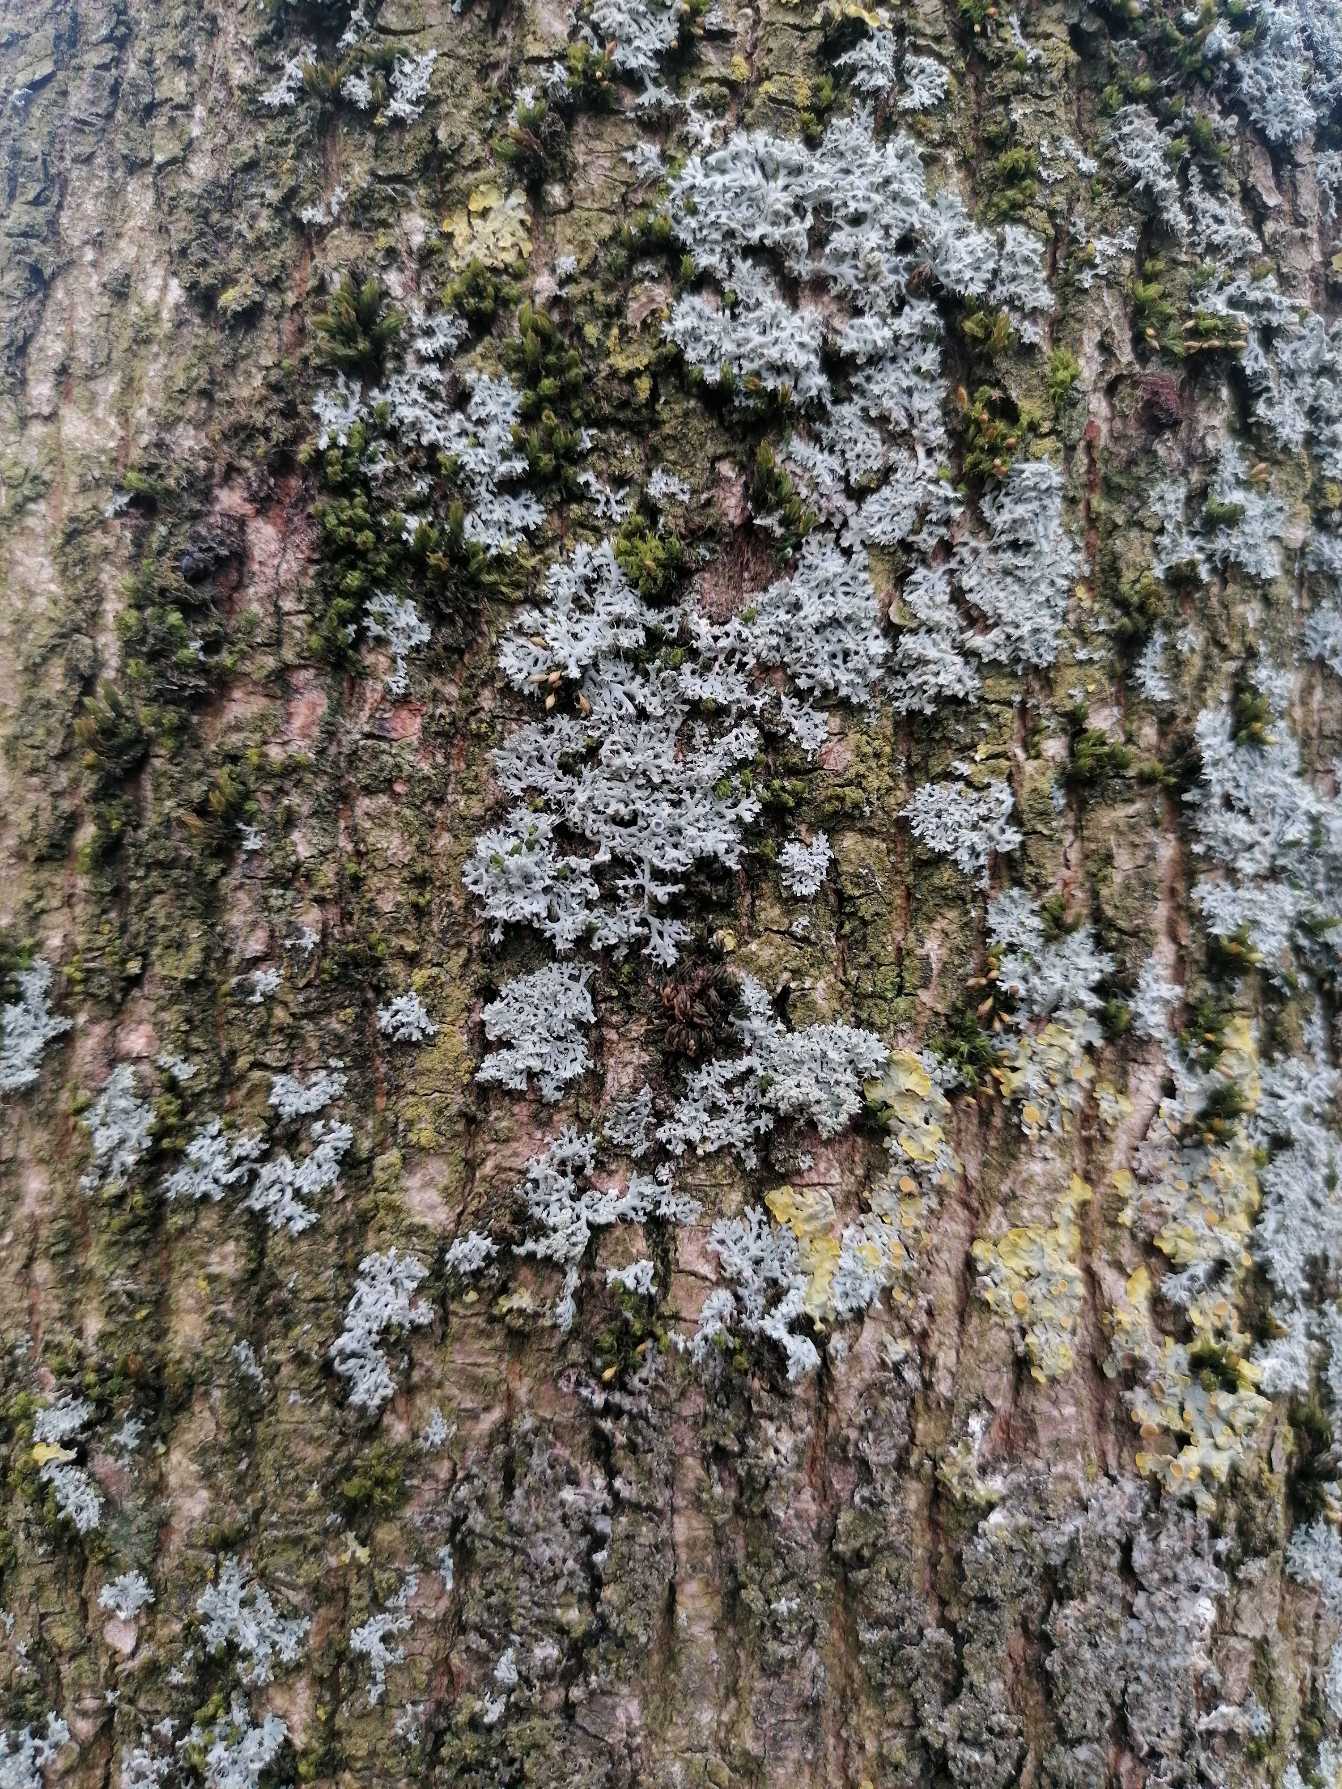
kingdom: Fungi
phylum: Ascomycota
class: Lecanoromycetes
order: Caliciales
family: Physciaceae
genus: Physcia
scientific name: Physcia tenella
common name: Spæd rosetlav
